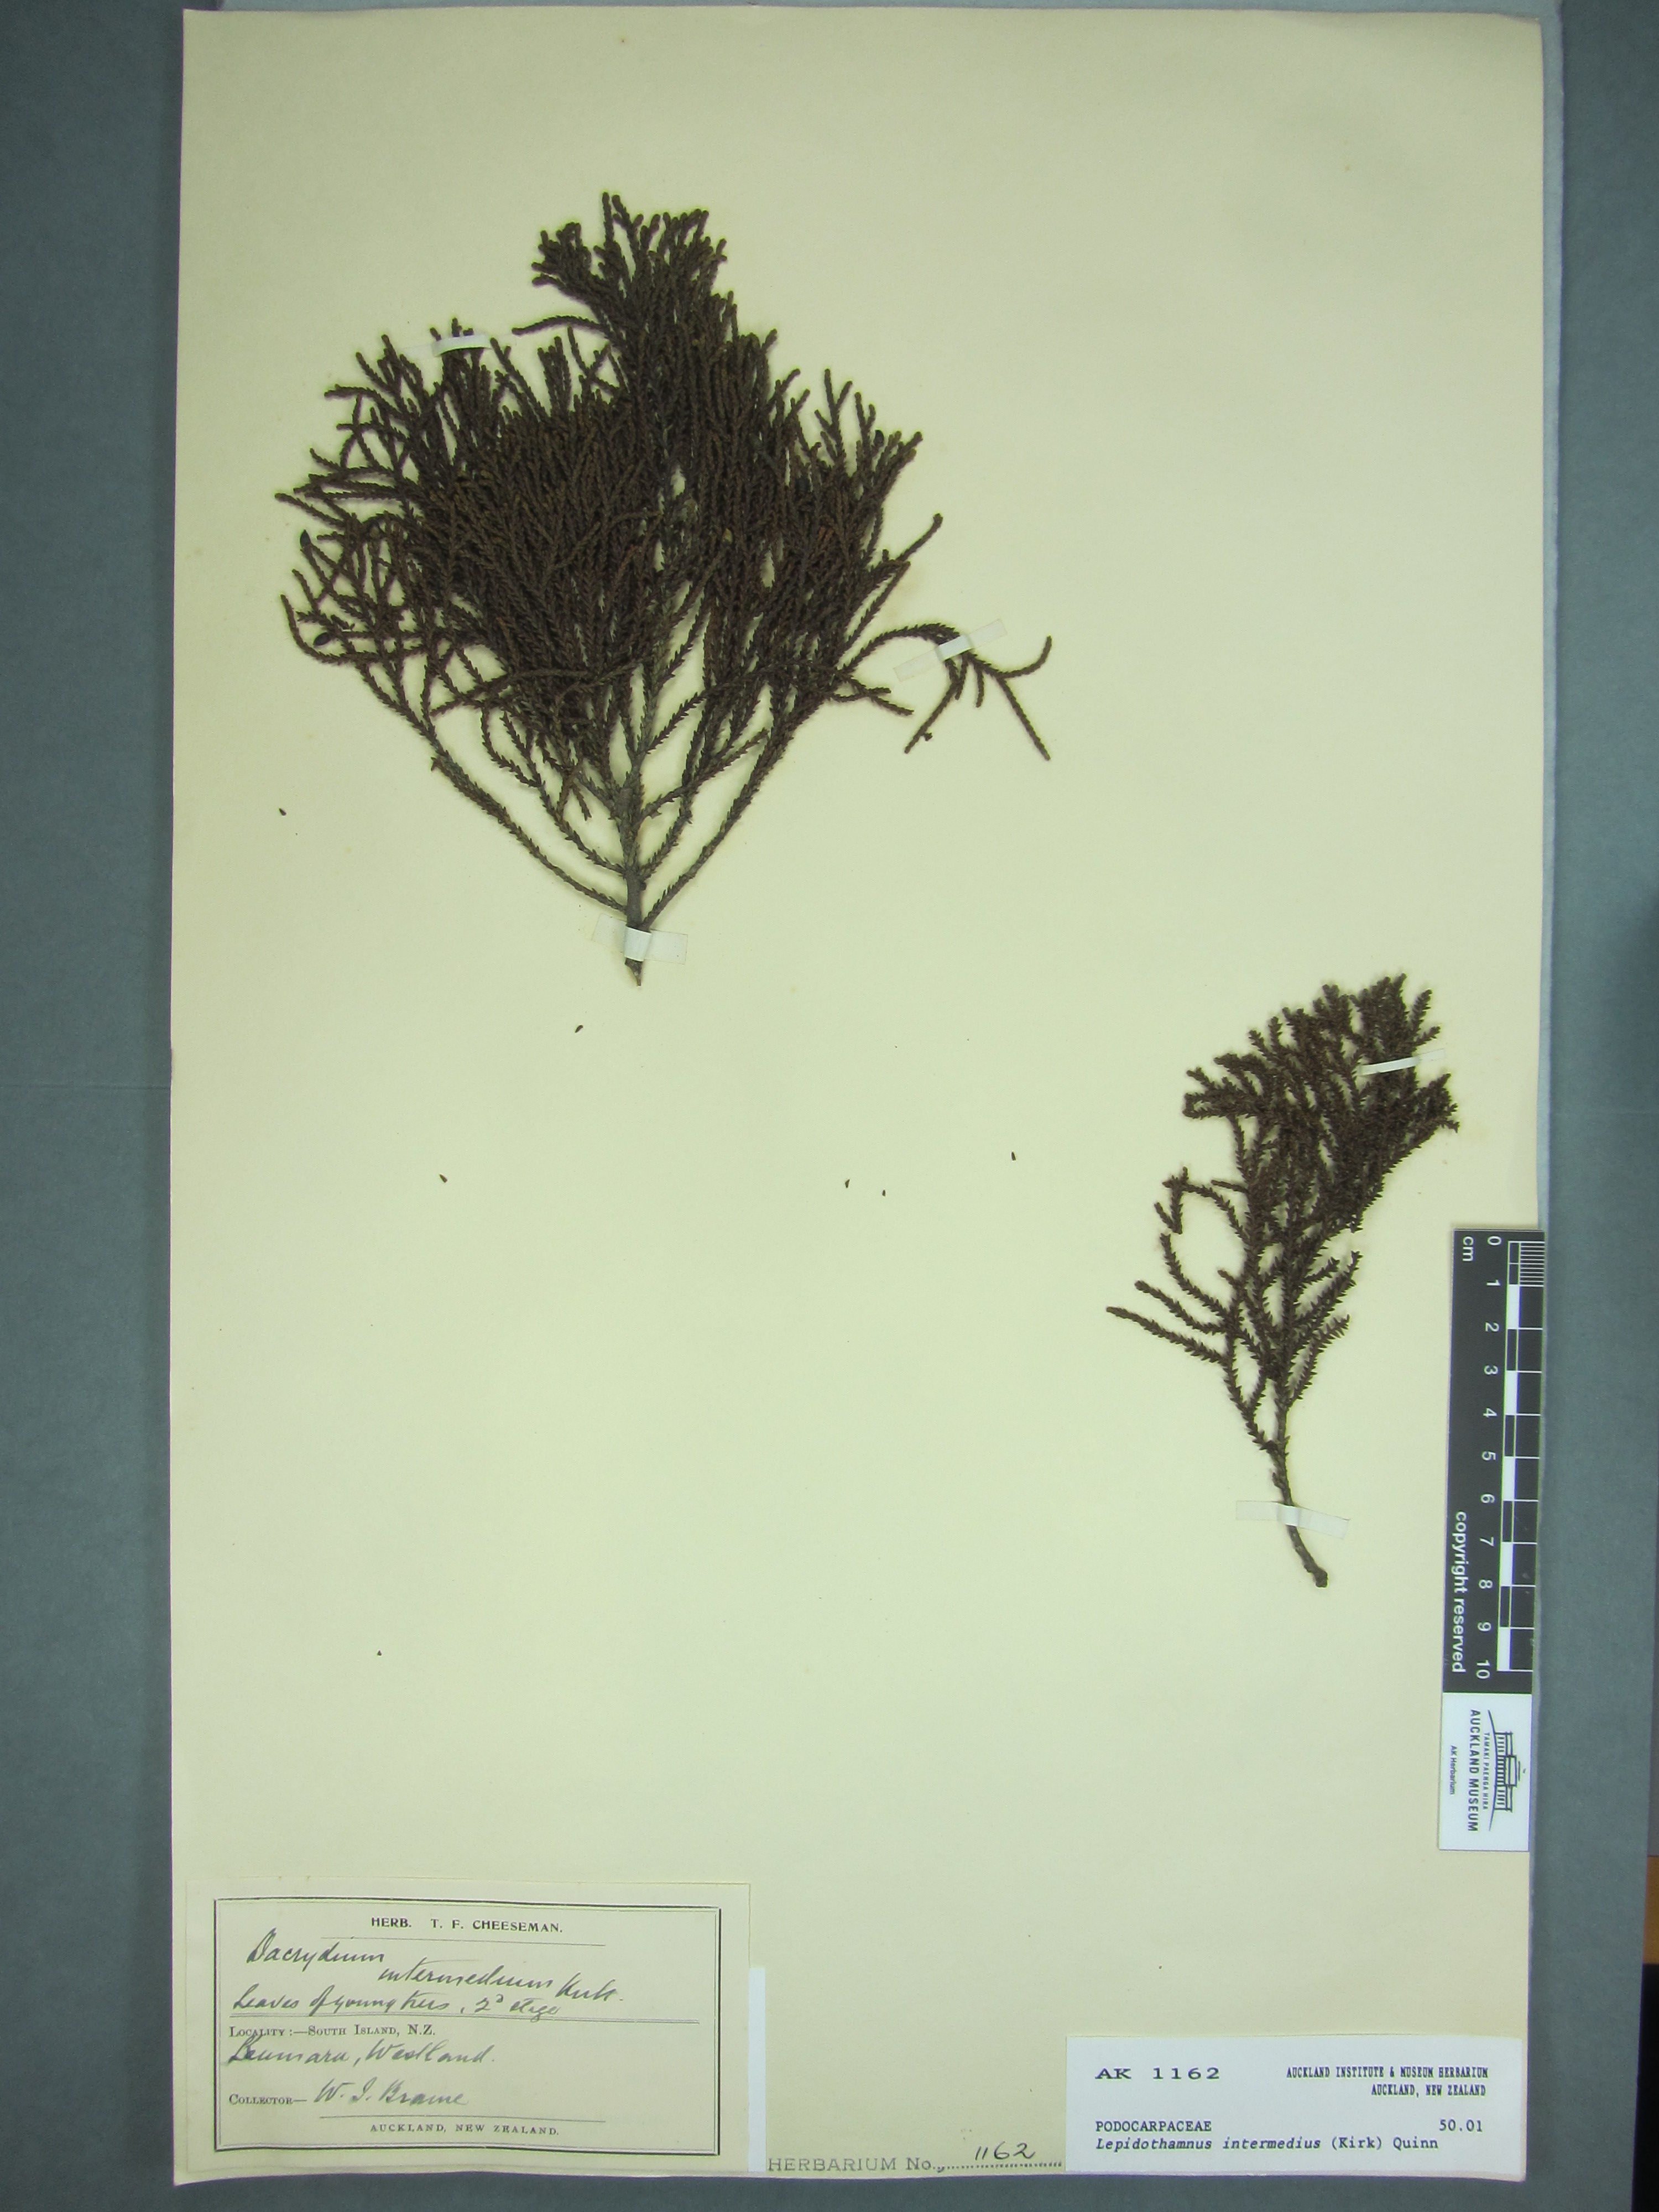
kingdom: Plantae
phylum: Tracheophyta
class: Pinopsida
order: Pinales
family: Podocarpaceae
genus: Lepidothamnus
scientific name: Lepidothamnus intermedius
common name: Yellow silver pine
